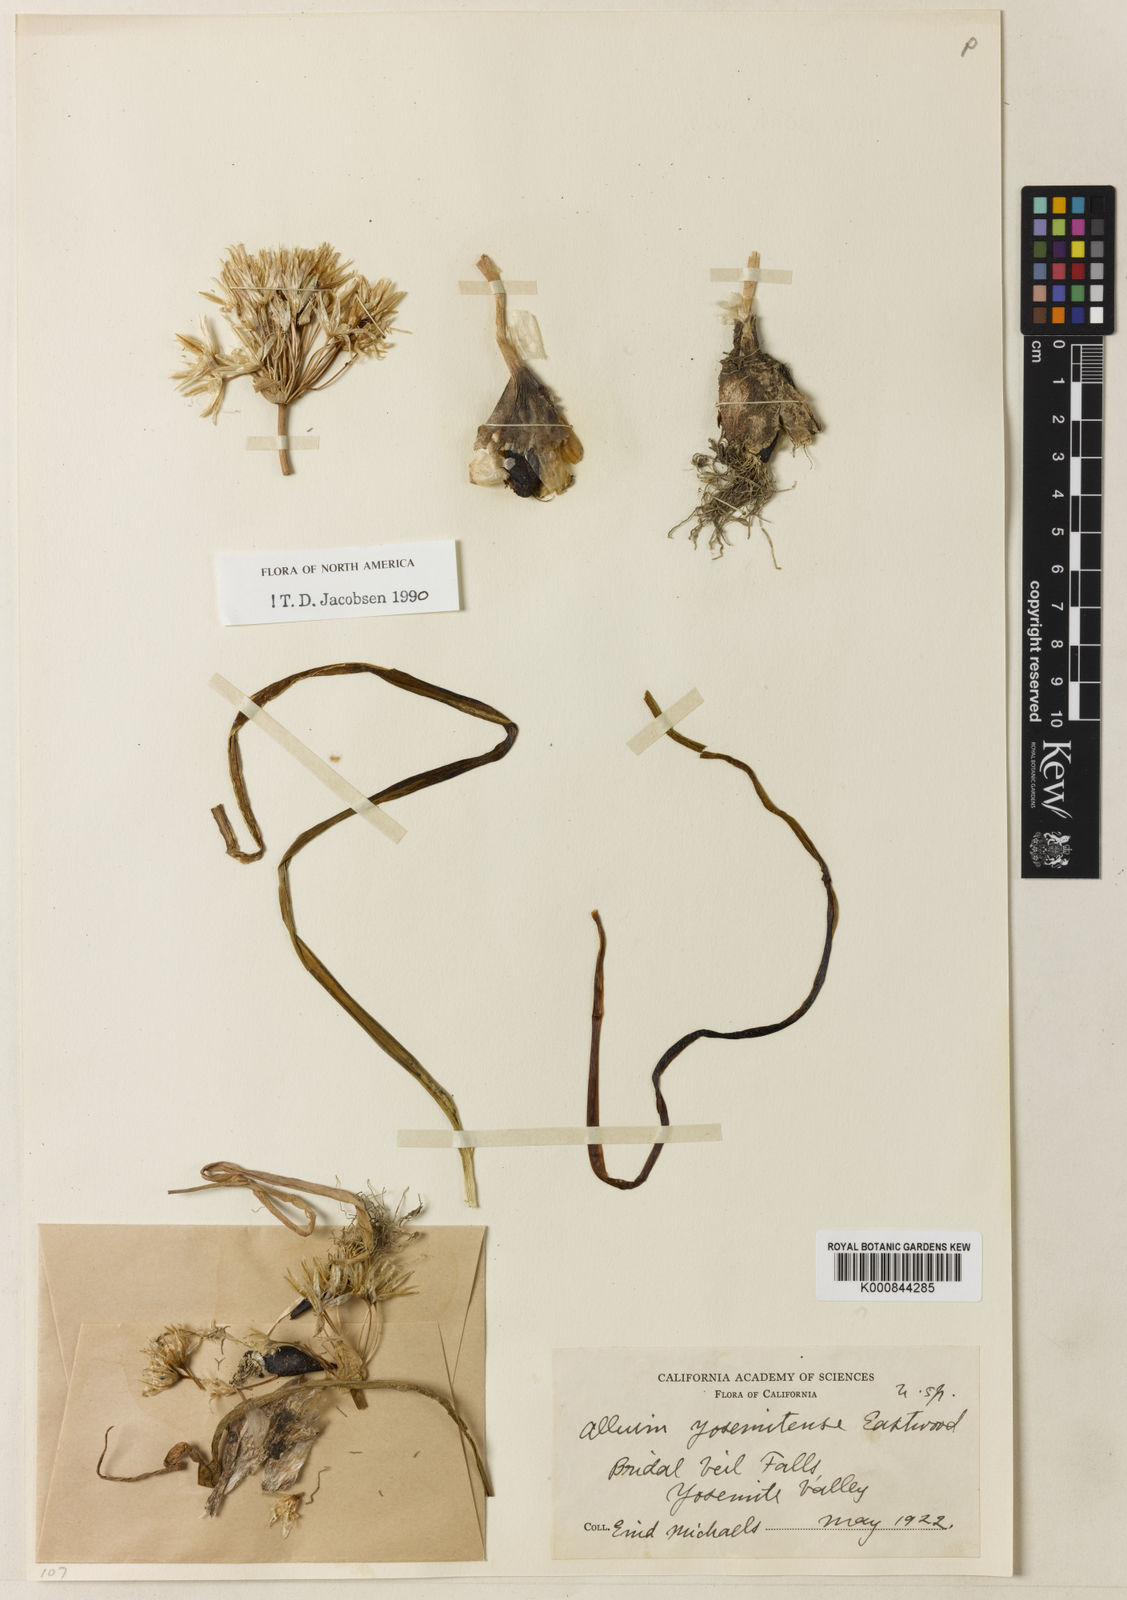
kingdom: Plantae
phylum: Tracheophyta
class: Liliopsida
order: Asparagales
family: Amaryllidaceae
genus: Allium
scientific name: Allium yosemitense
